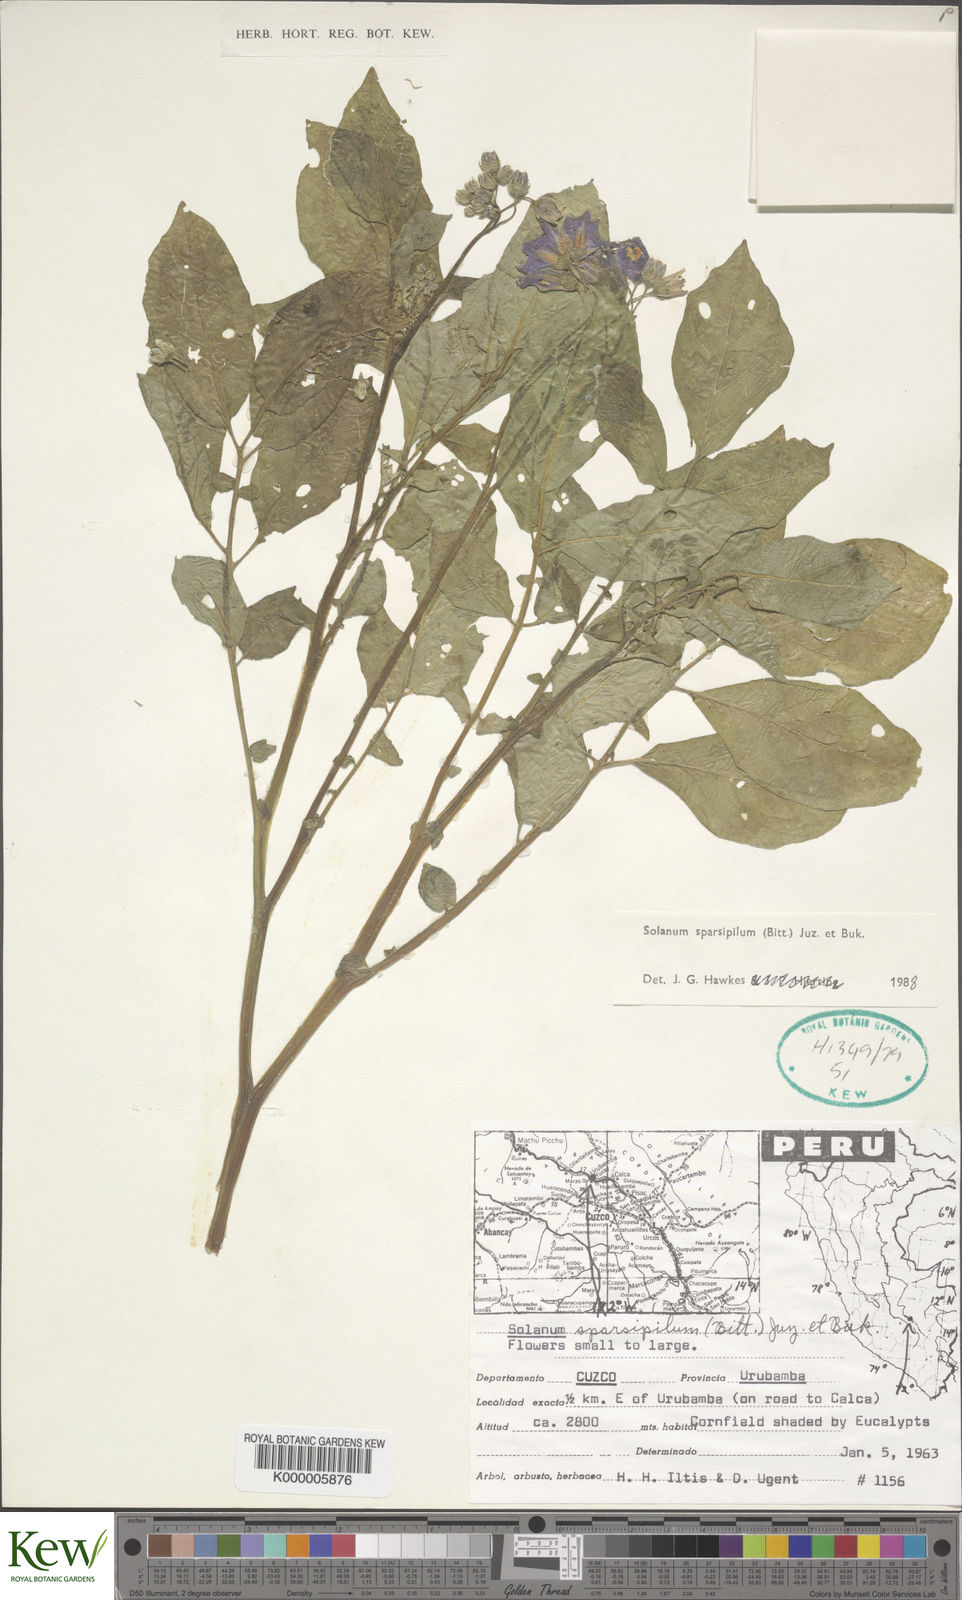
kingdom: Plantae
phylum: Tracheophyta
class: Magnoliopsida
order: Solanales
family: Solanaceae
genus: Solanum
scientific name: Solanum candolleanum
